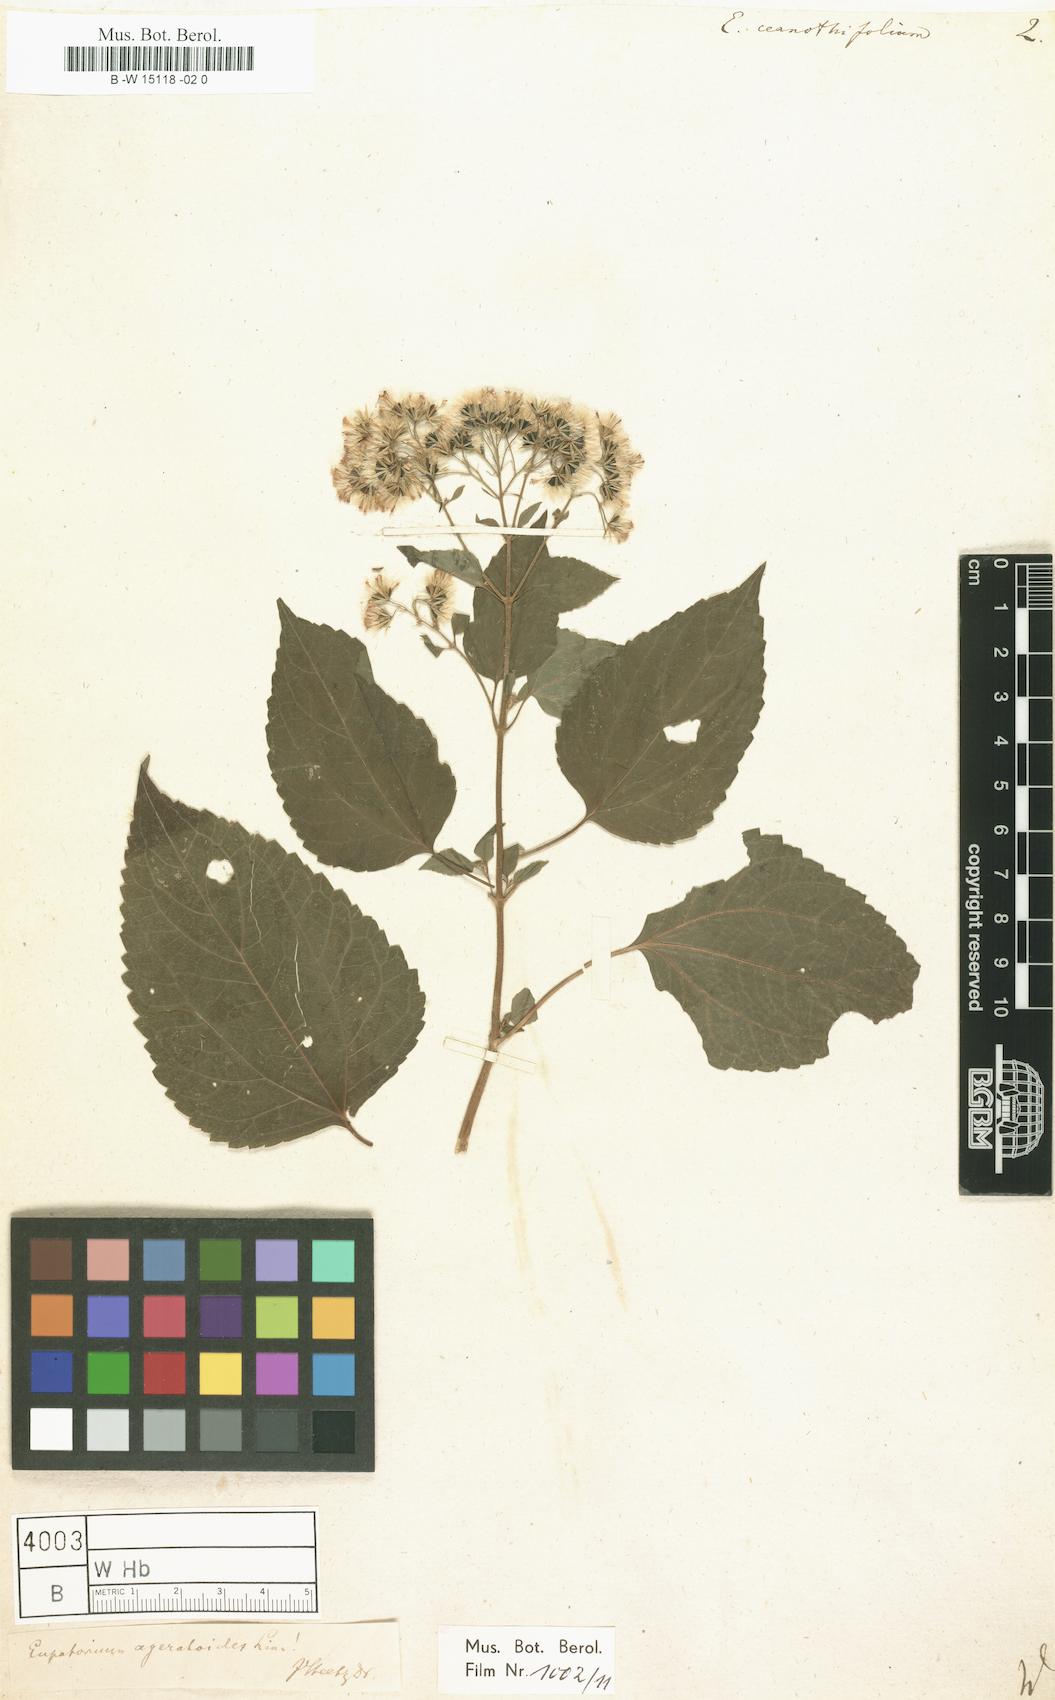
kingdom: Plantae
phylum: Tracheophyta
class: Magnoliopsida
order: Asterales
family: Asteraceae
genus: Ageratina
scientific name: Ageratina
